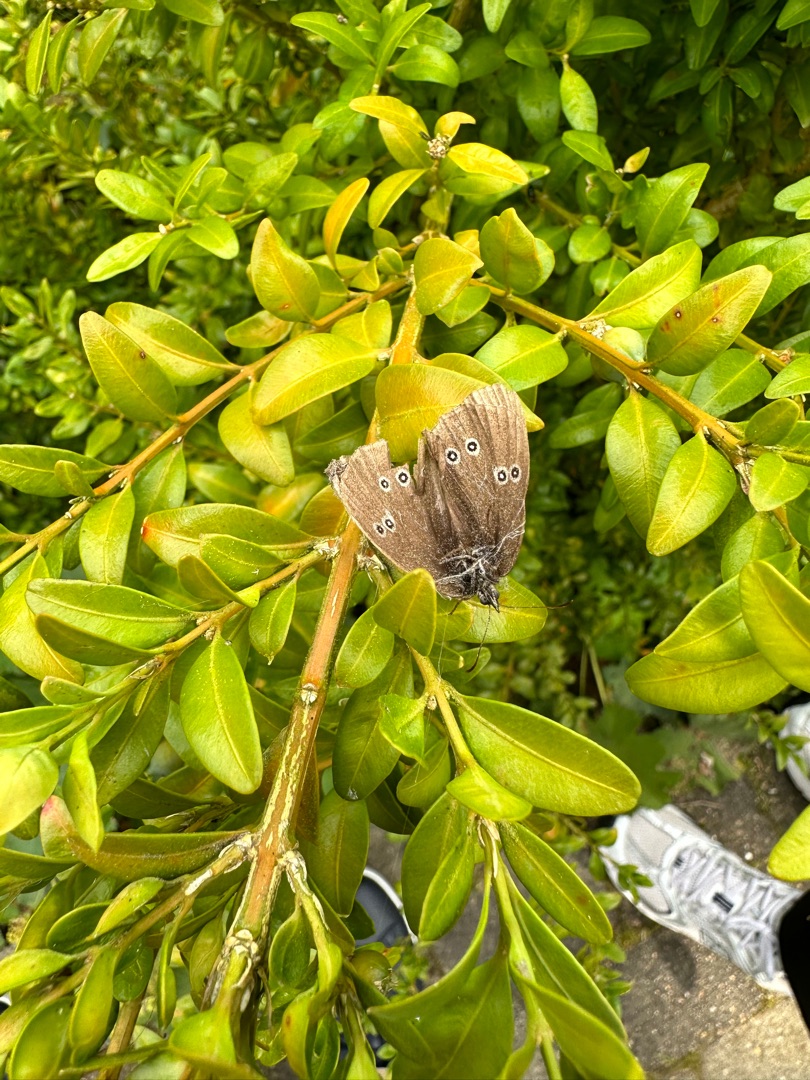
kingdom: Animalia
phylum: Arthropoda
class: Insecta
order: Lepidoptera
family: Nymphalidae
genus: Aphantopus
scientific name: Aphantopus hyperantus
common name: Engrandøje
